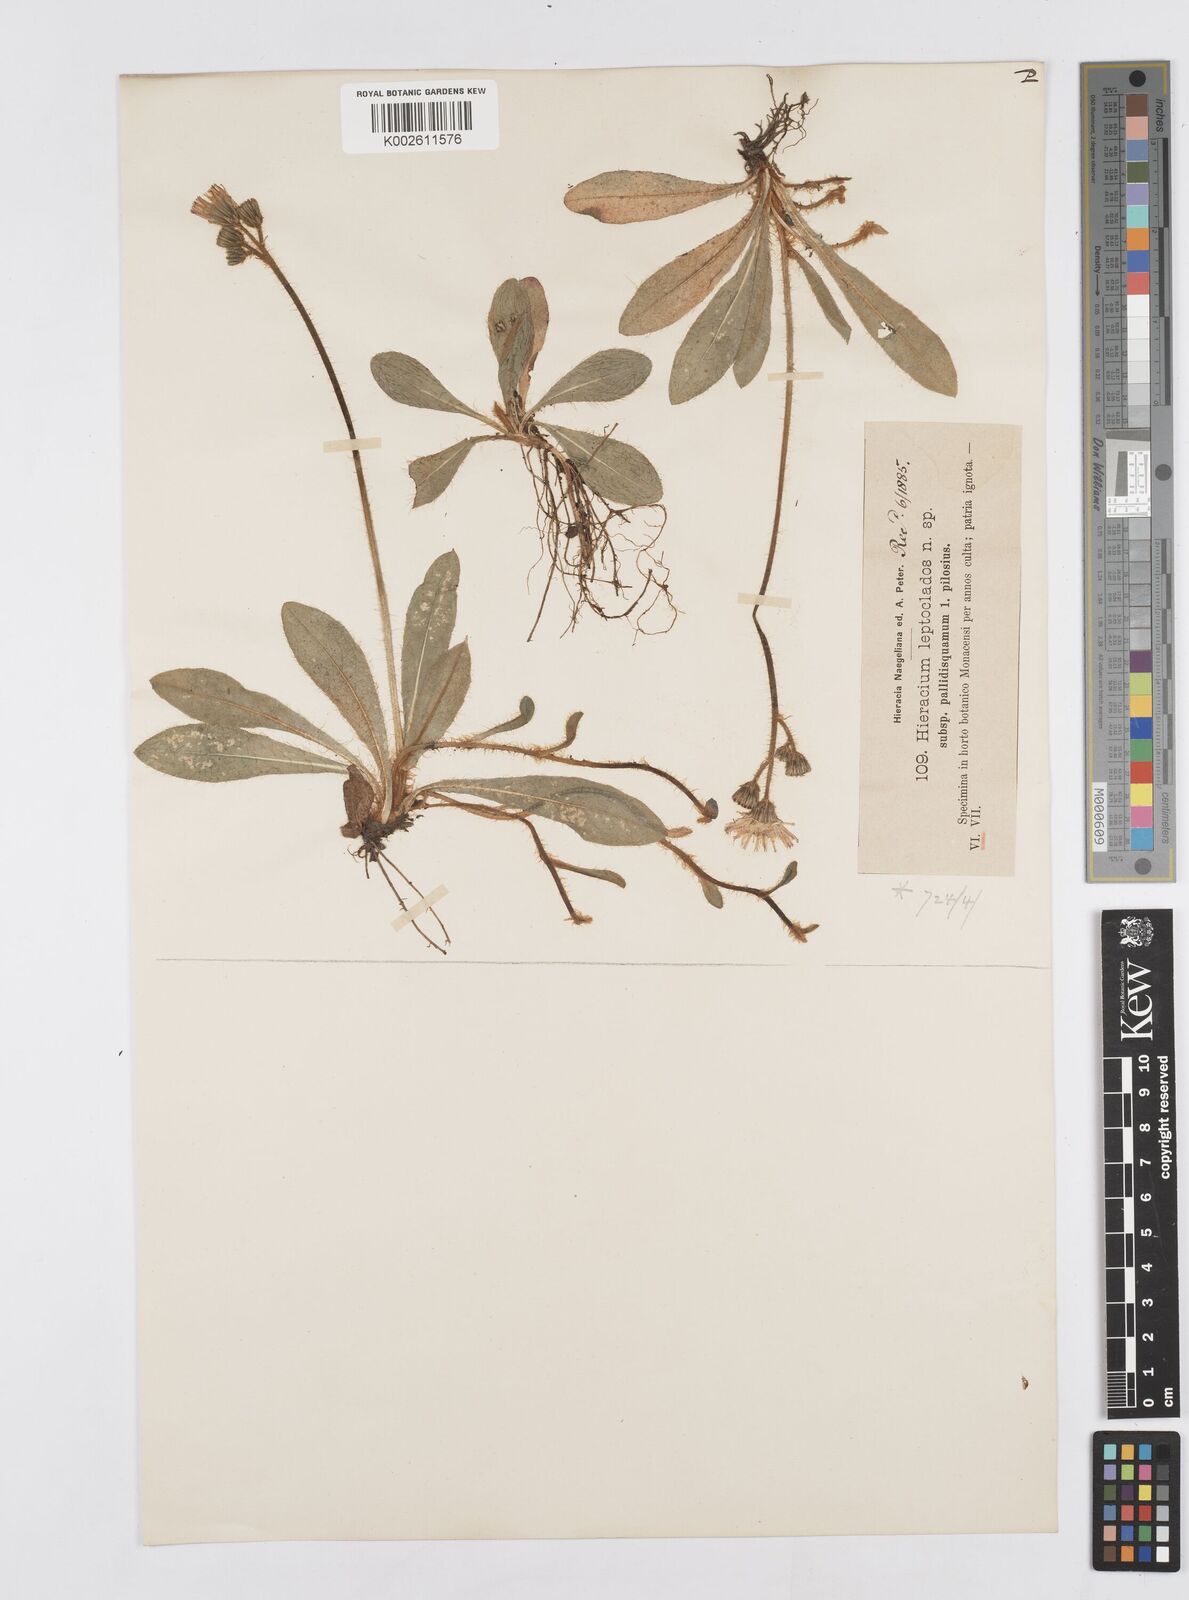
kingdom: Plantae
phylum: Tracheophyta
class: Magnoliopsida
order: Asterales
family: Asteraceae
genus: Hieracium
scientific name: Hieracium
